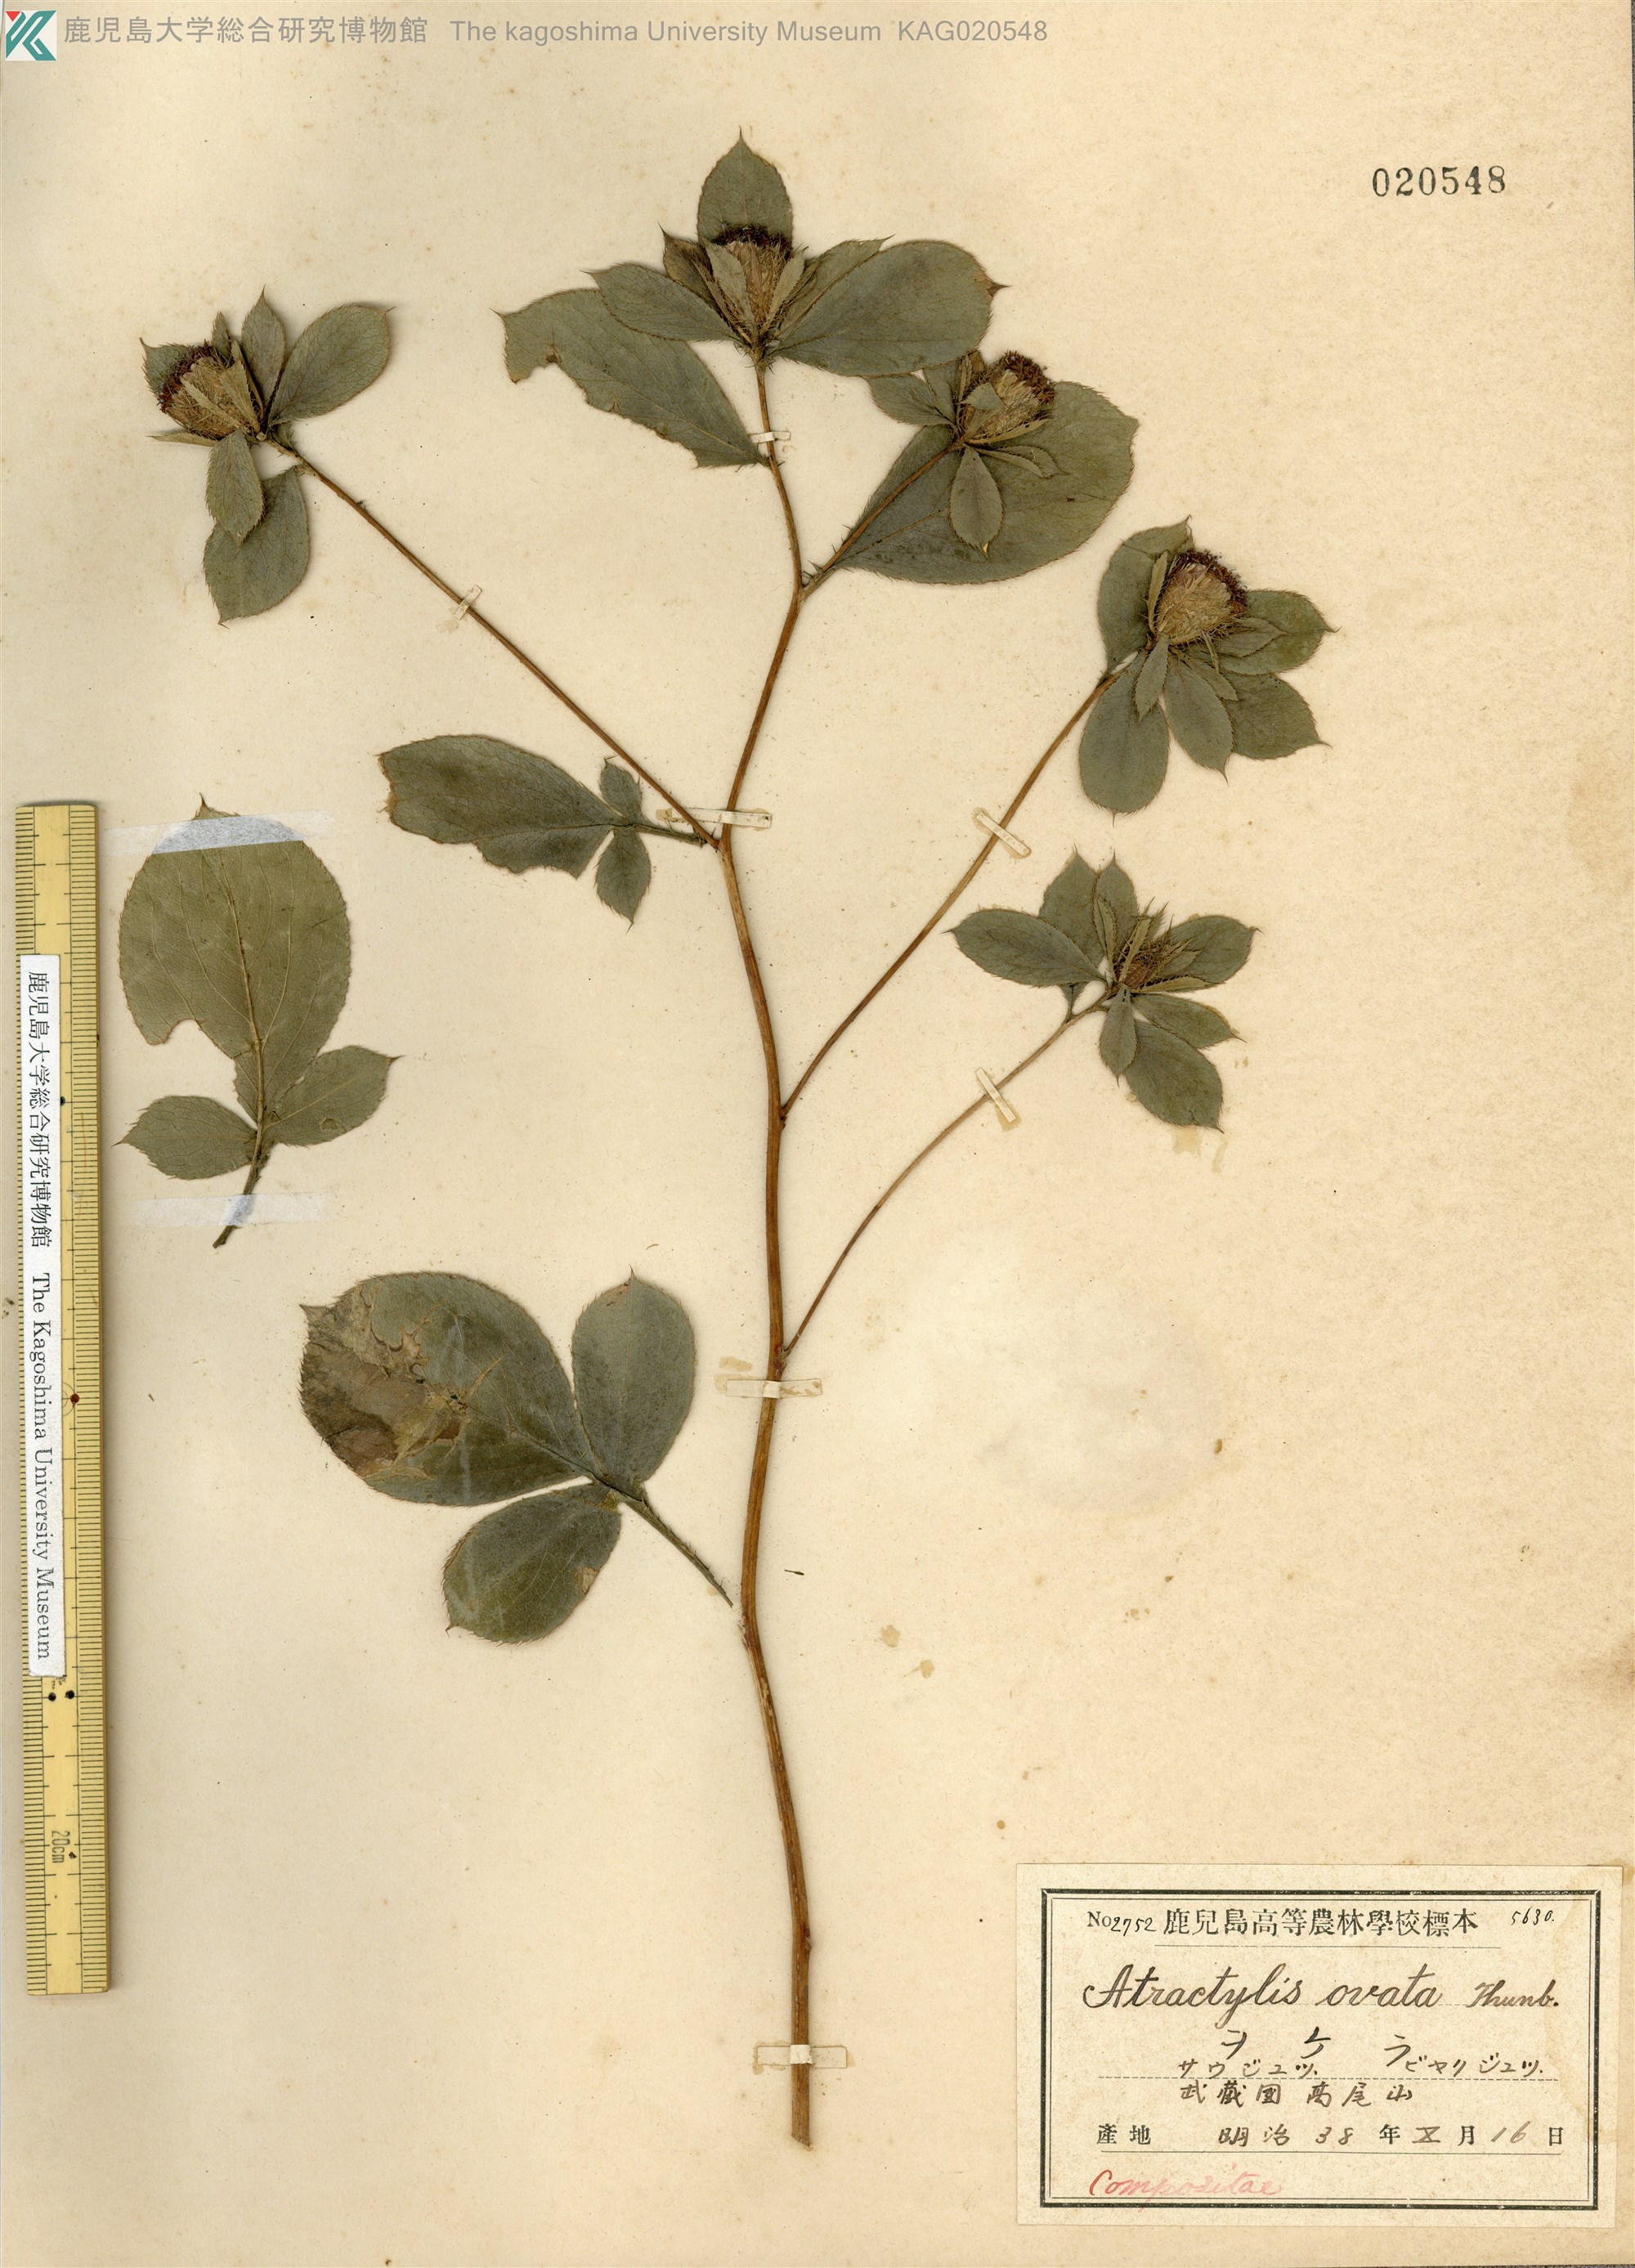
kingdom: Plantae
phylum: Tracheophyta
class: Magnoliopsida
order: Asterales
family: Asteraceae
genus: Atractylodes
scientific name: Atractylodes lancea
